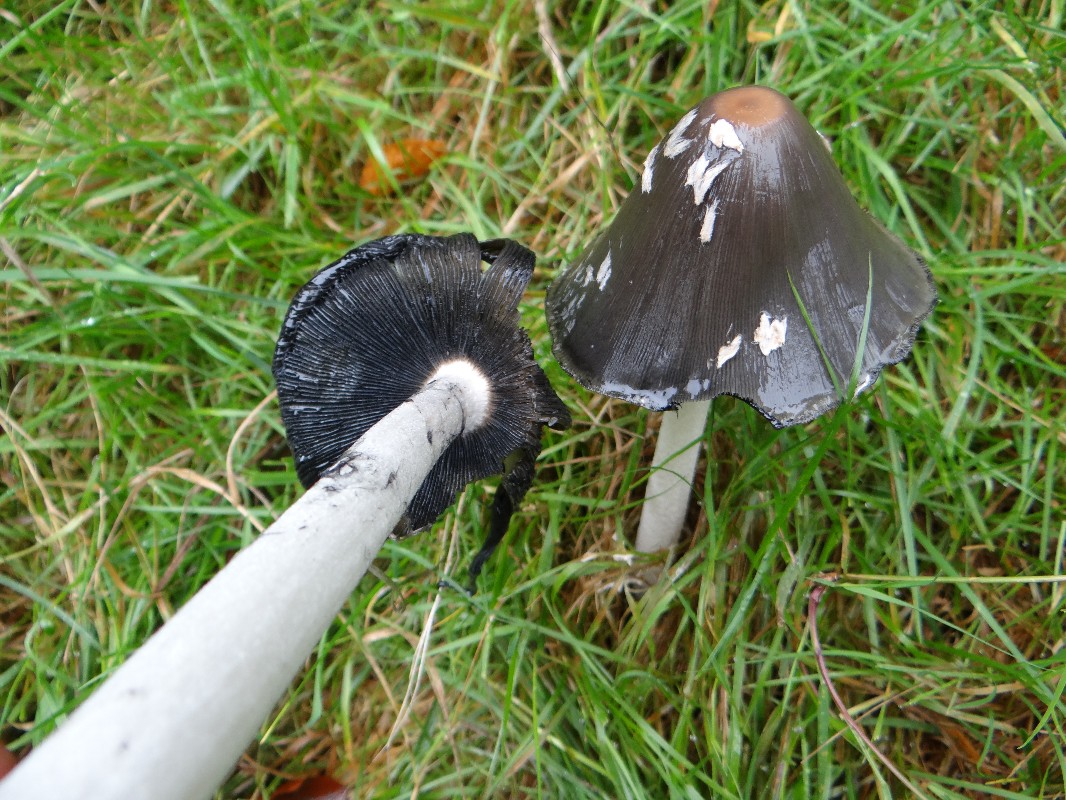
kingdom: Fungi
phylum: Basidiomycota
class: Agaricomycetes
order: Agaricales
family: Psathyrellaceae
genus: Coprinopsis
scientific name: Coprinopsis picacea
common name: skade-blækhat
